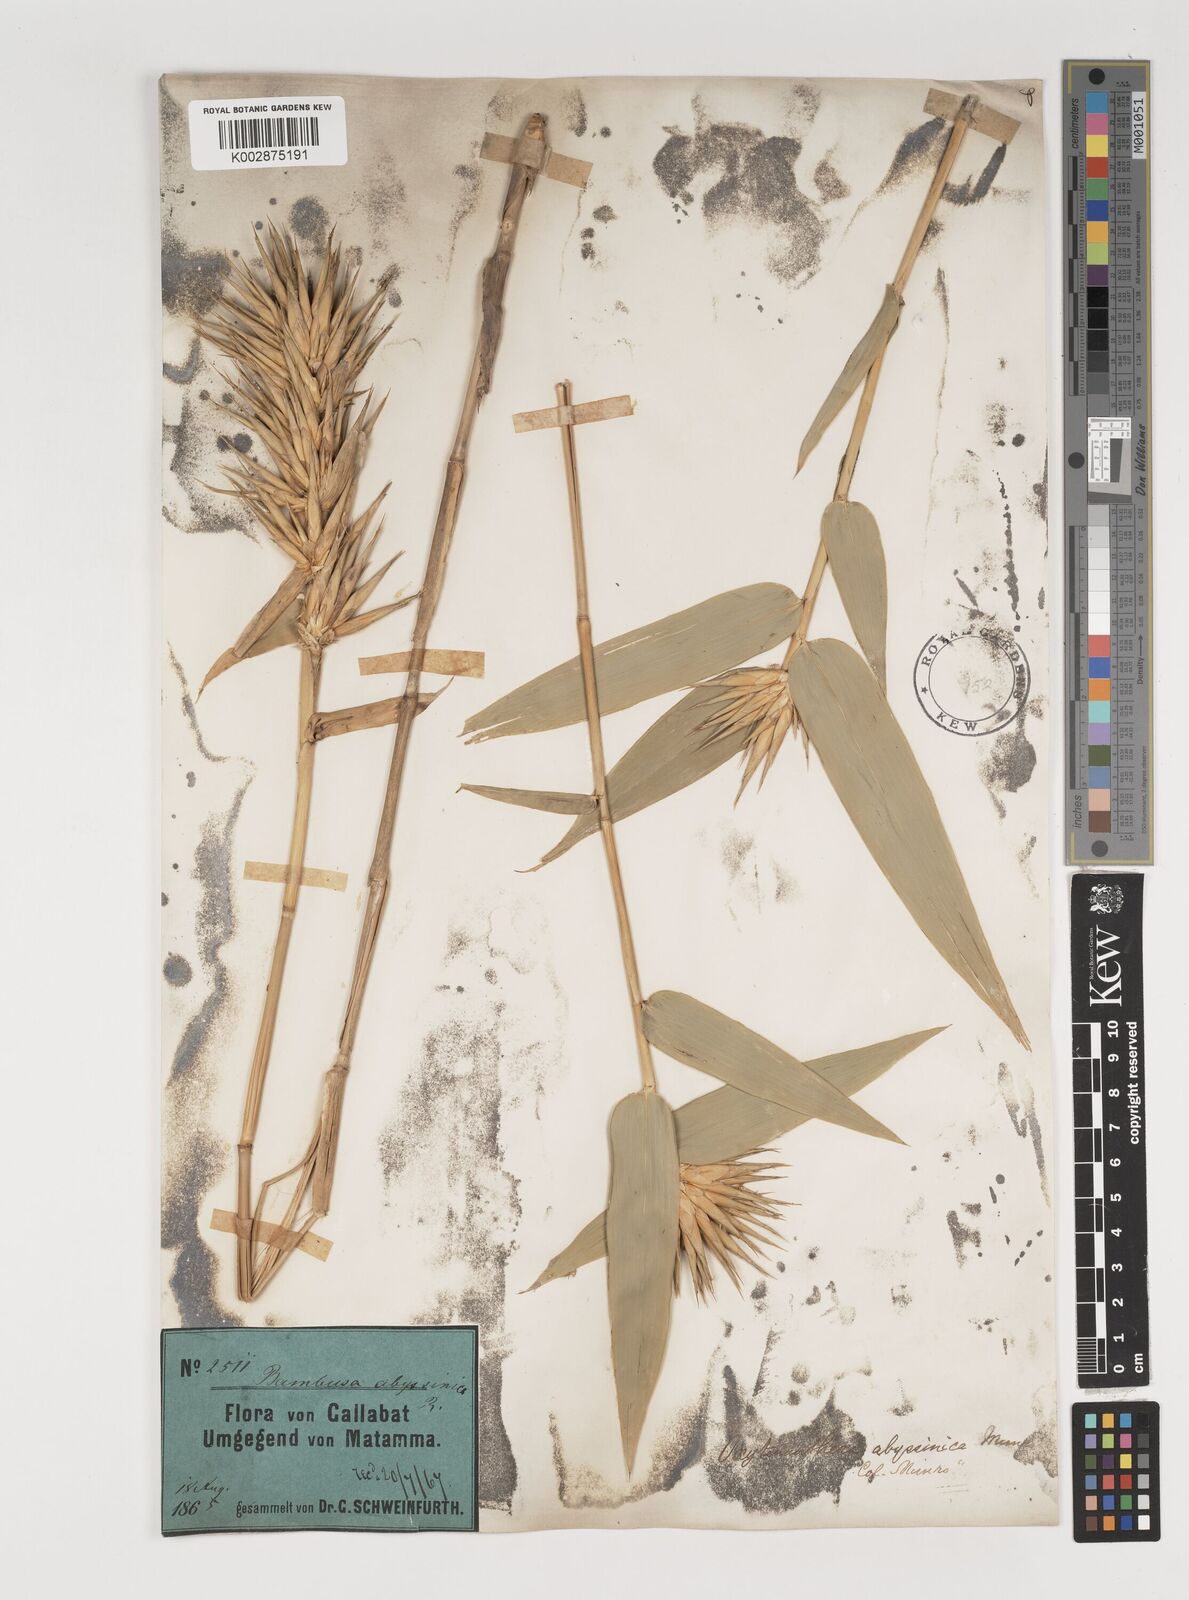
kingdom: Plantae
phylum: Tracheophyta
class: Liliopsida
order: Poales
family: Poaceae
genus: Oxytenanthera
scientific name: Oxytenanthera abyssinica
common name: Wine bamboo
